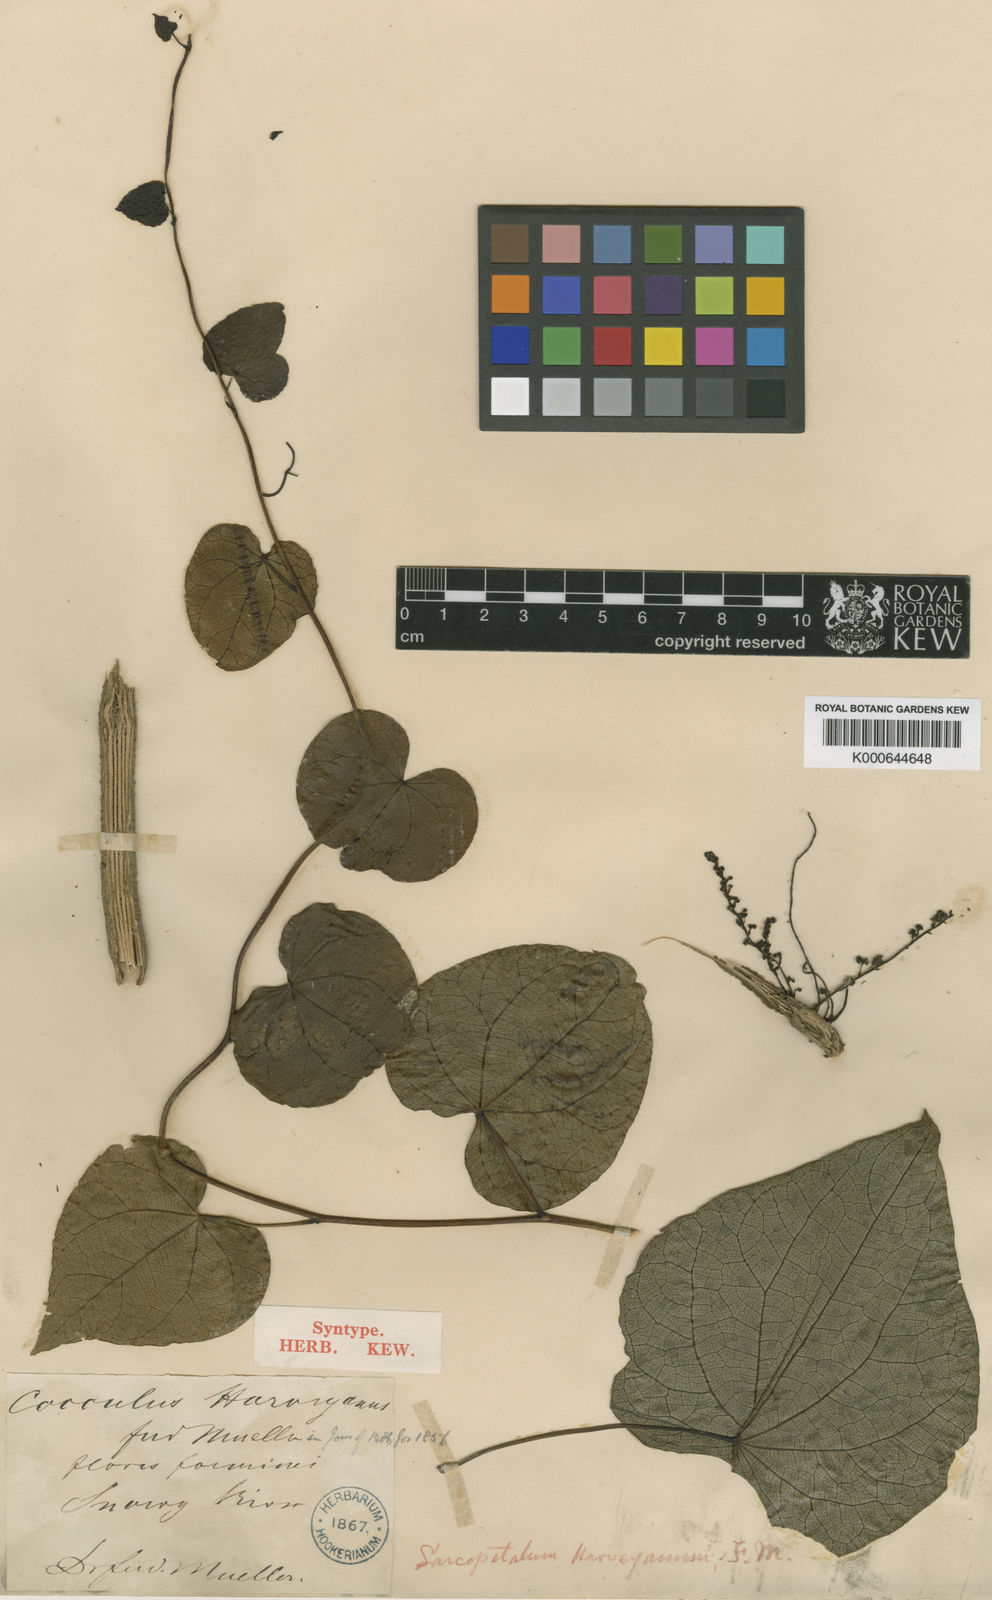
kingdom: Plantae
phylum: Tracheophyta
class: Magnoliopsida
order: Ranunculales
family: Menispermaceae
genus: Sarcopetalum
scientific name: Sarcopetalum harveyanum
